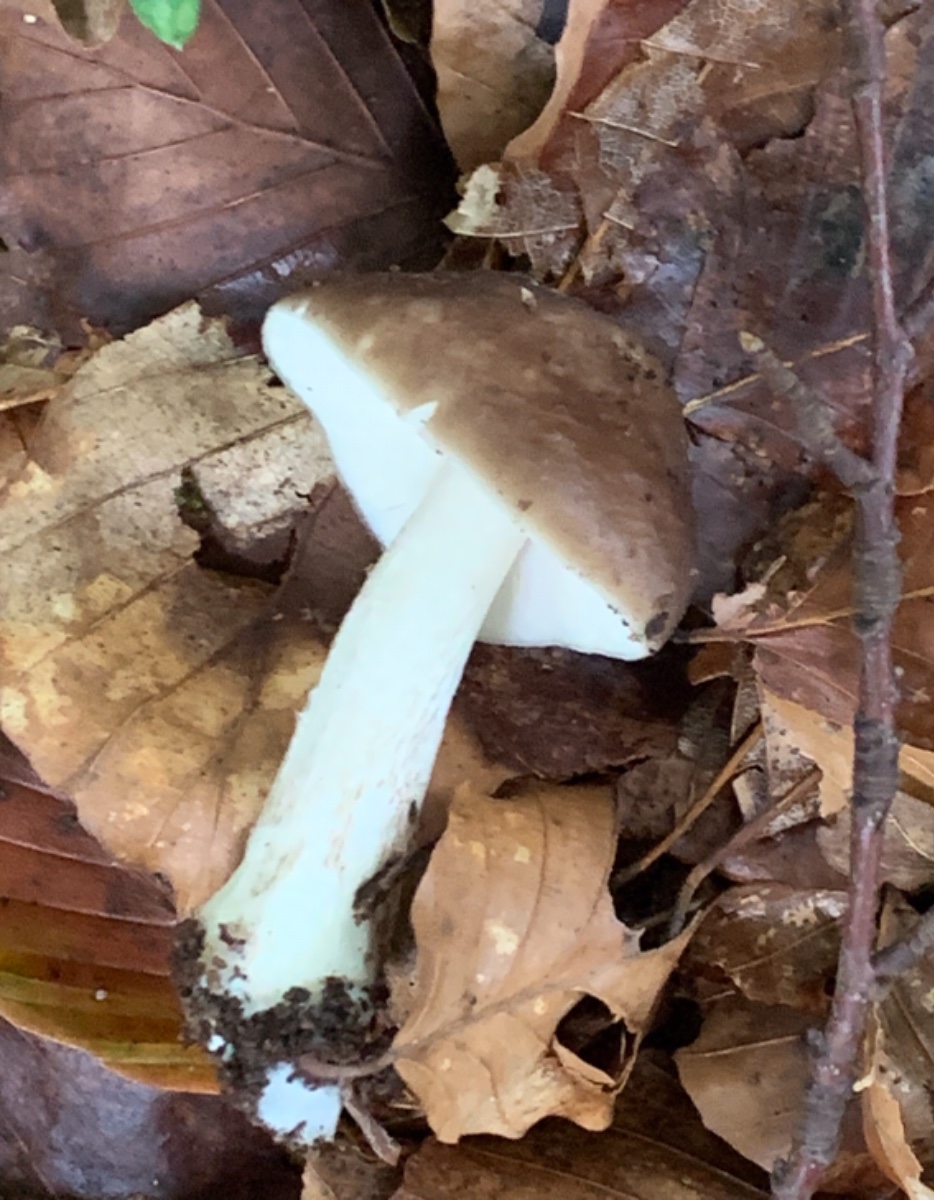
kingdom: Fungi
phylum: Basidiomycota
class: Agaricomycetes
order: Agaricales
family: Pluteaceae
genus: Pluteus
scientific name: Pluteus cervinus
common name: sodfarvet skærmhat
